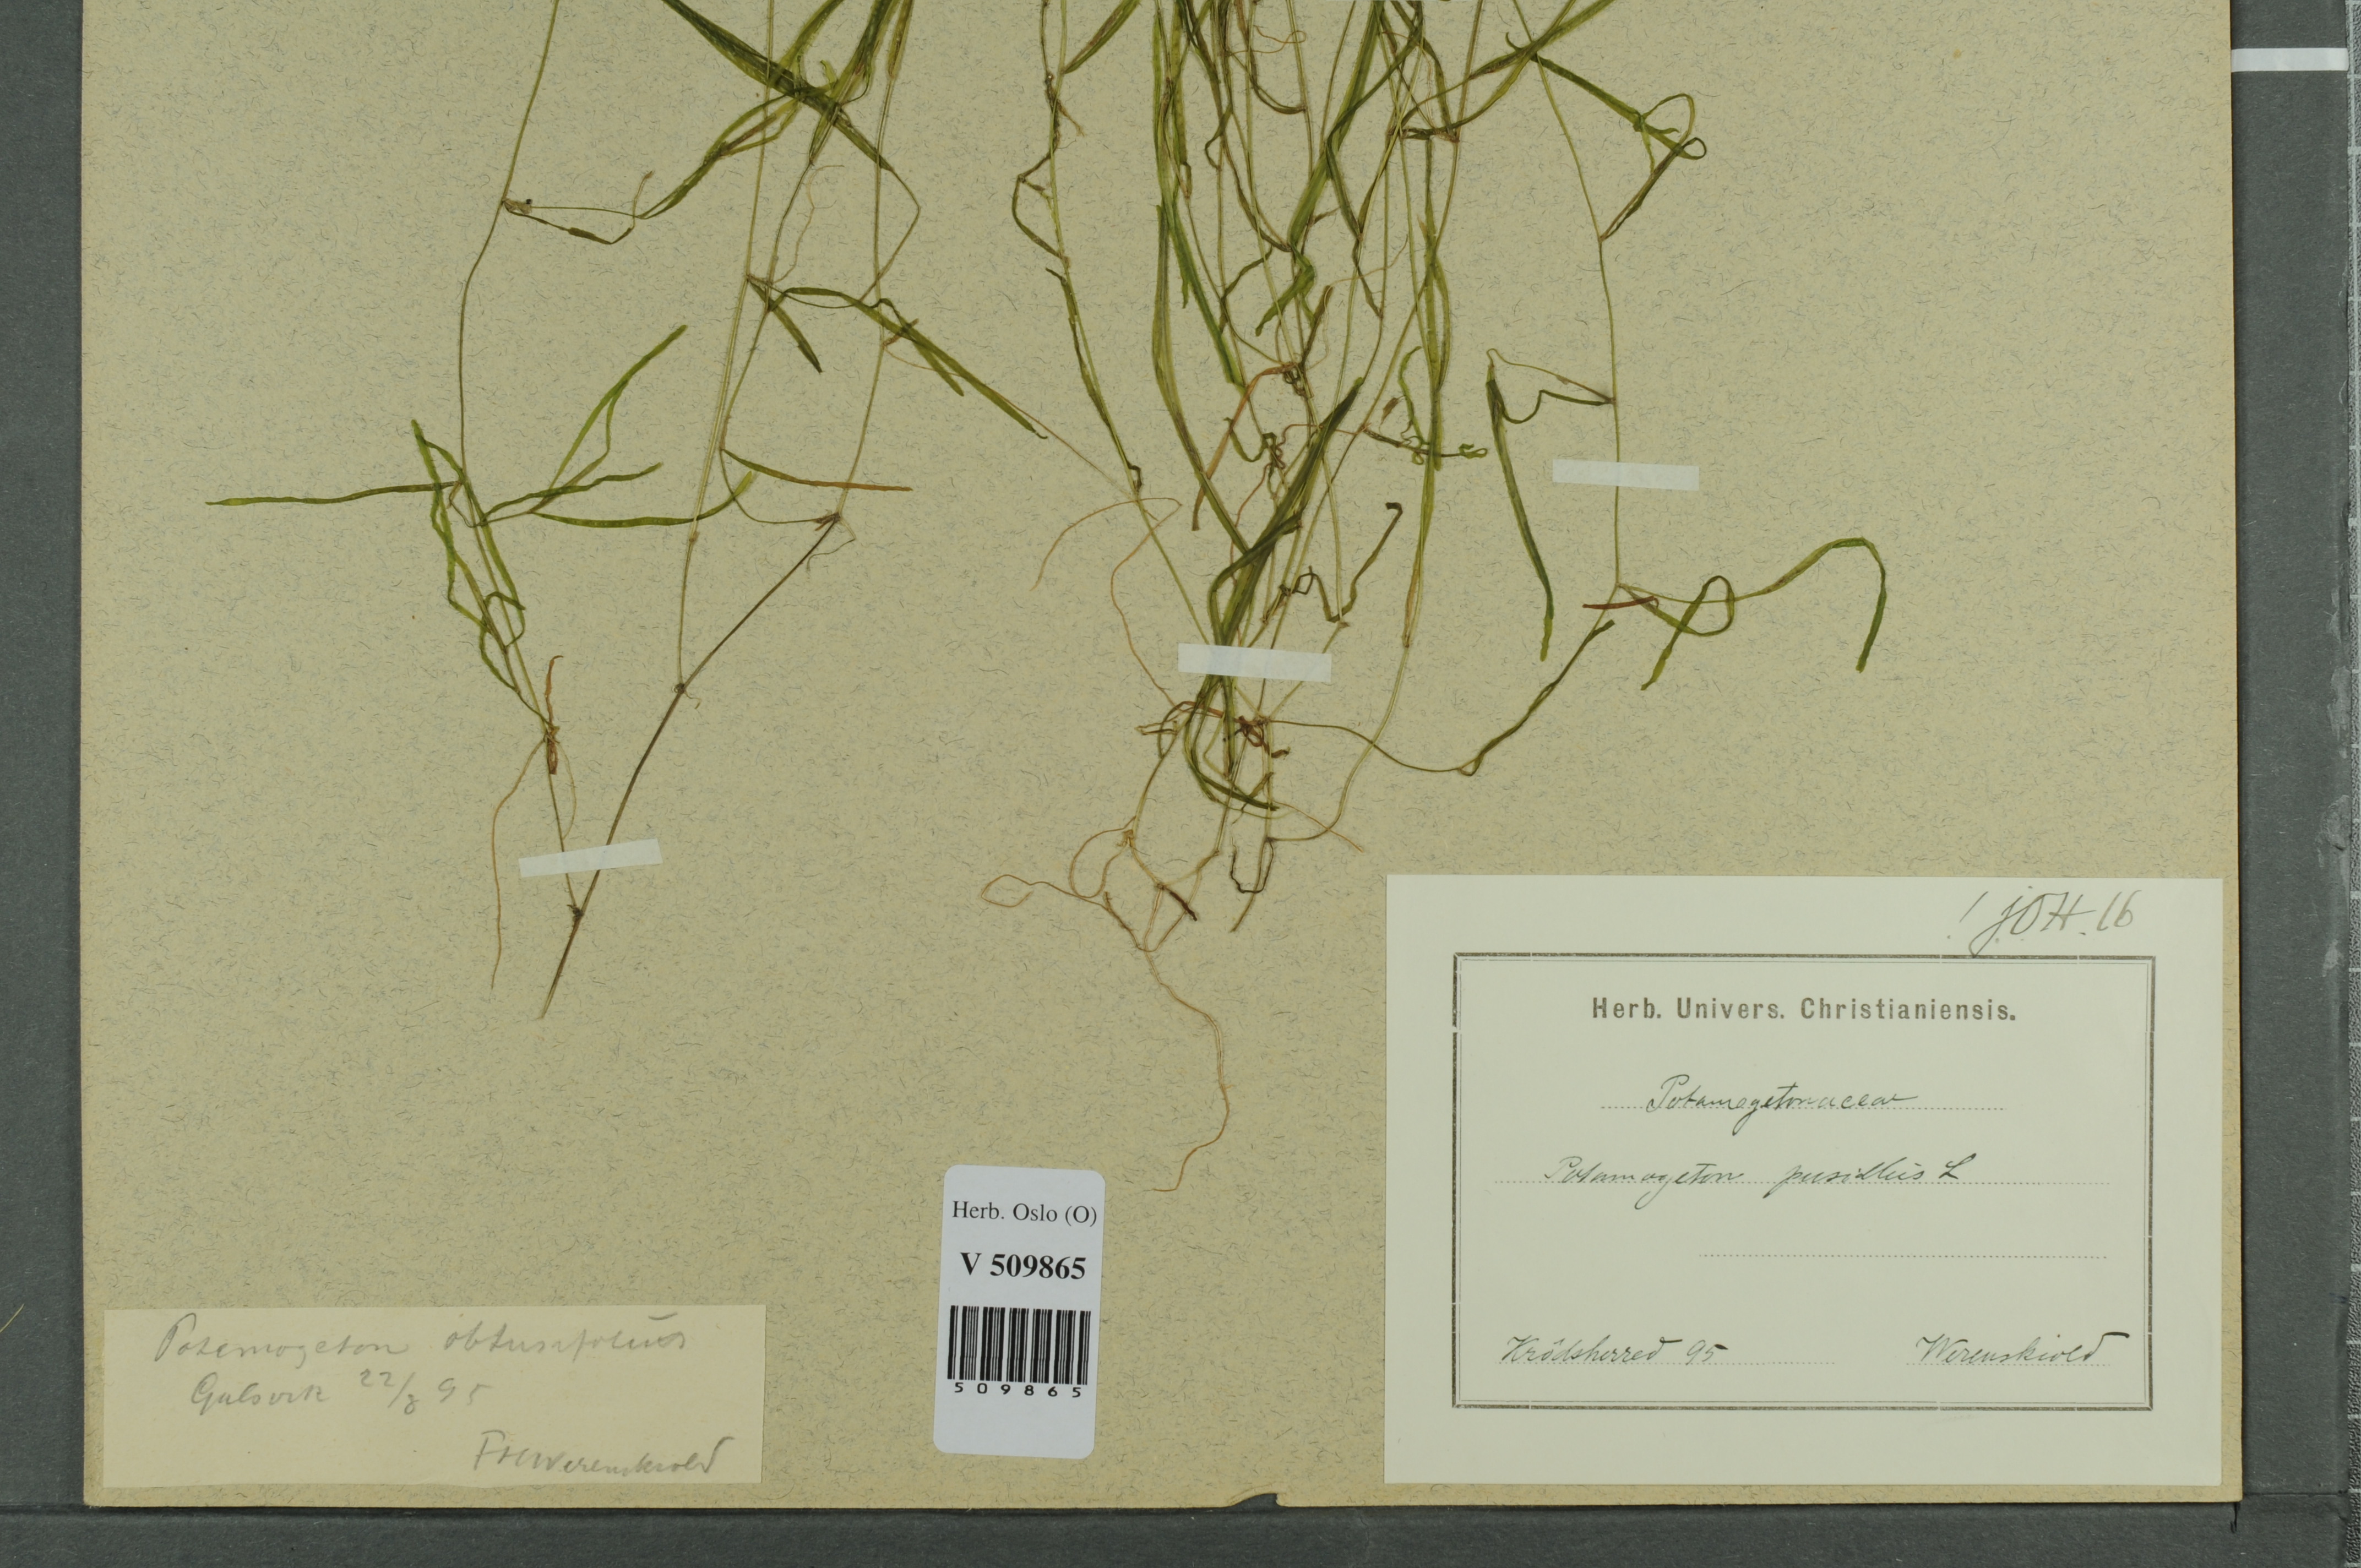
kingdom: Plantae
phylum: Tracheophyta
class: Liliopsida
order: Alismatales
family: Potamogetonaceae
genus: Potamogeton
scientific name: Potamogeton berchtoldii
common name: Small pondweed
